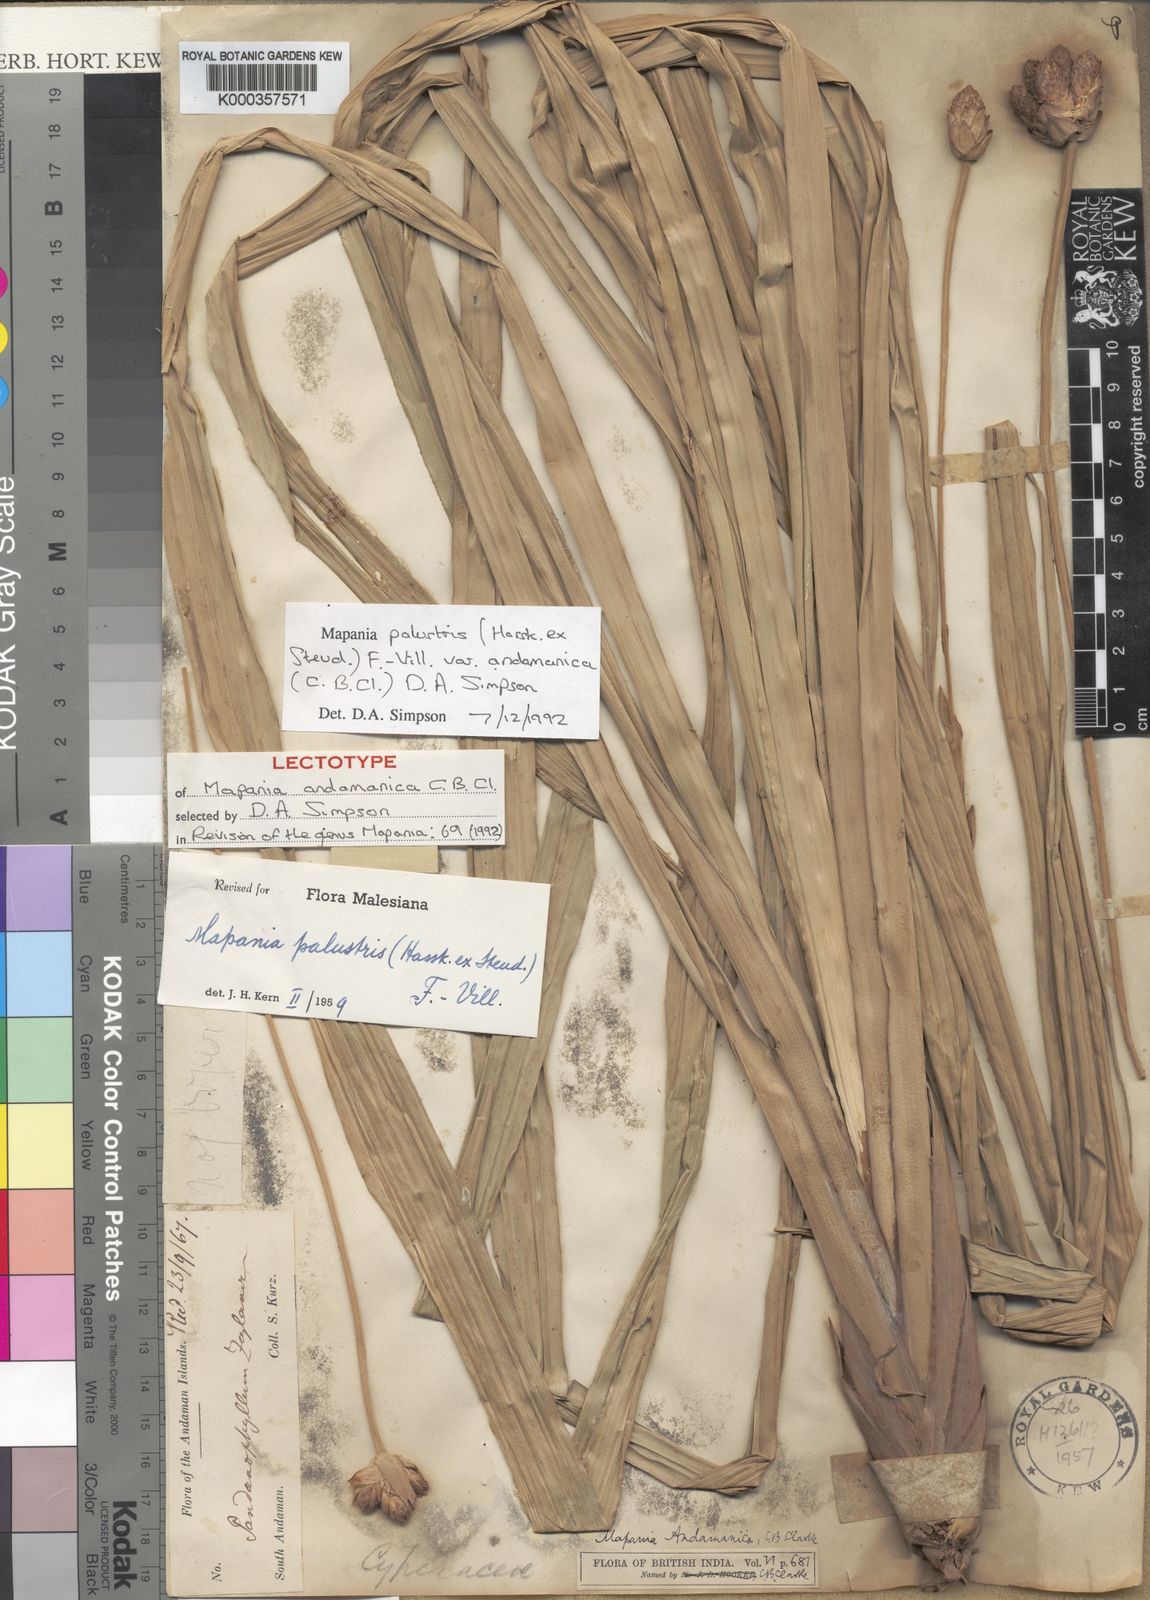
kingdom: Plantae
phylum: Tracheophyta
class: Liliopsida
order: Poales
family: Cyperaceae
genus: Mapania
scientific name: Mapania
